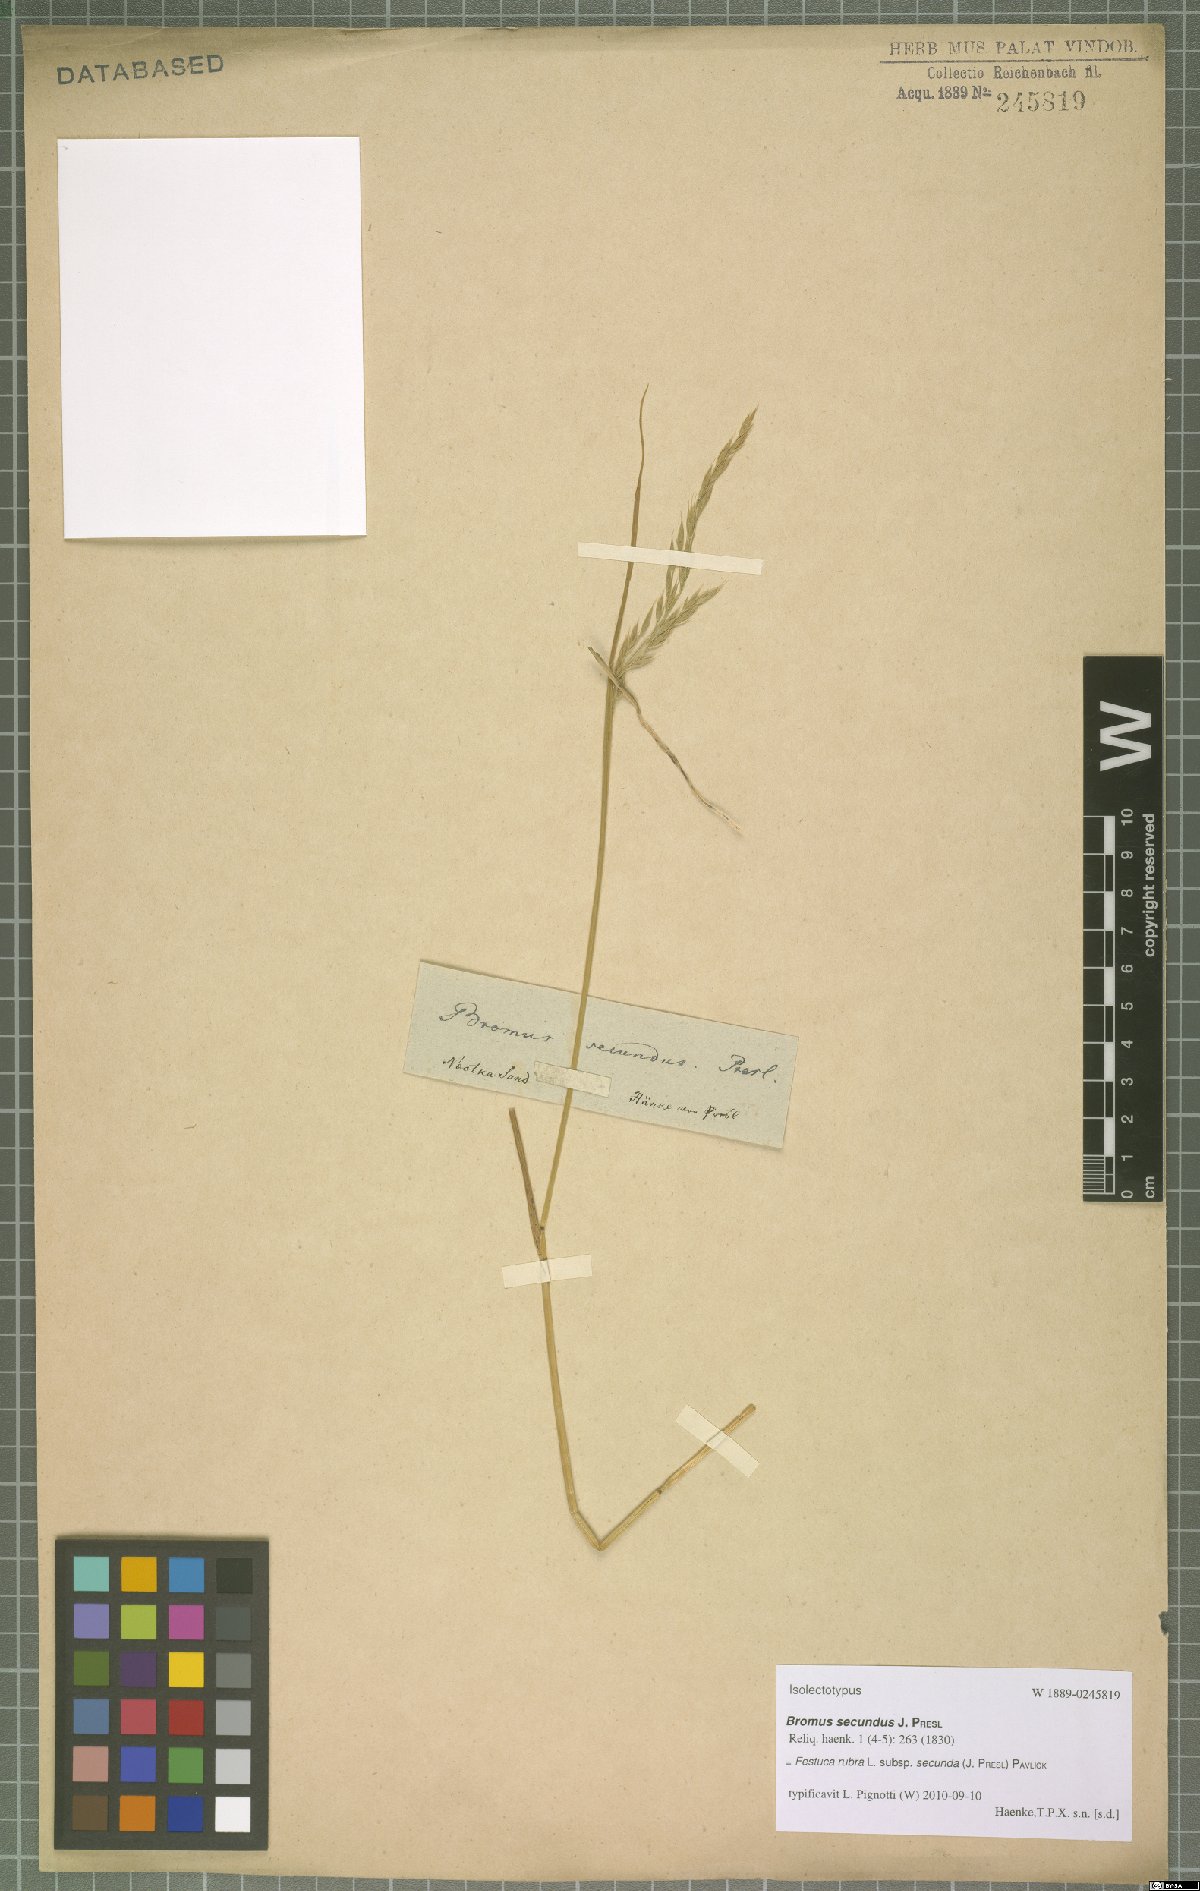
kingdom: Plantae
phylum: Tracheophyta
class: Liliopsida
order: Poales
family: Poaceae
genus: Festuca
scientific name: Festuca rubra
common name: Red fescue
